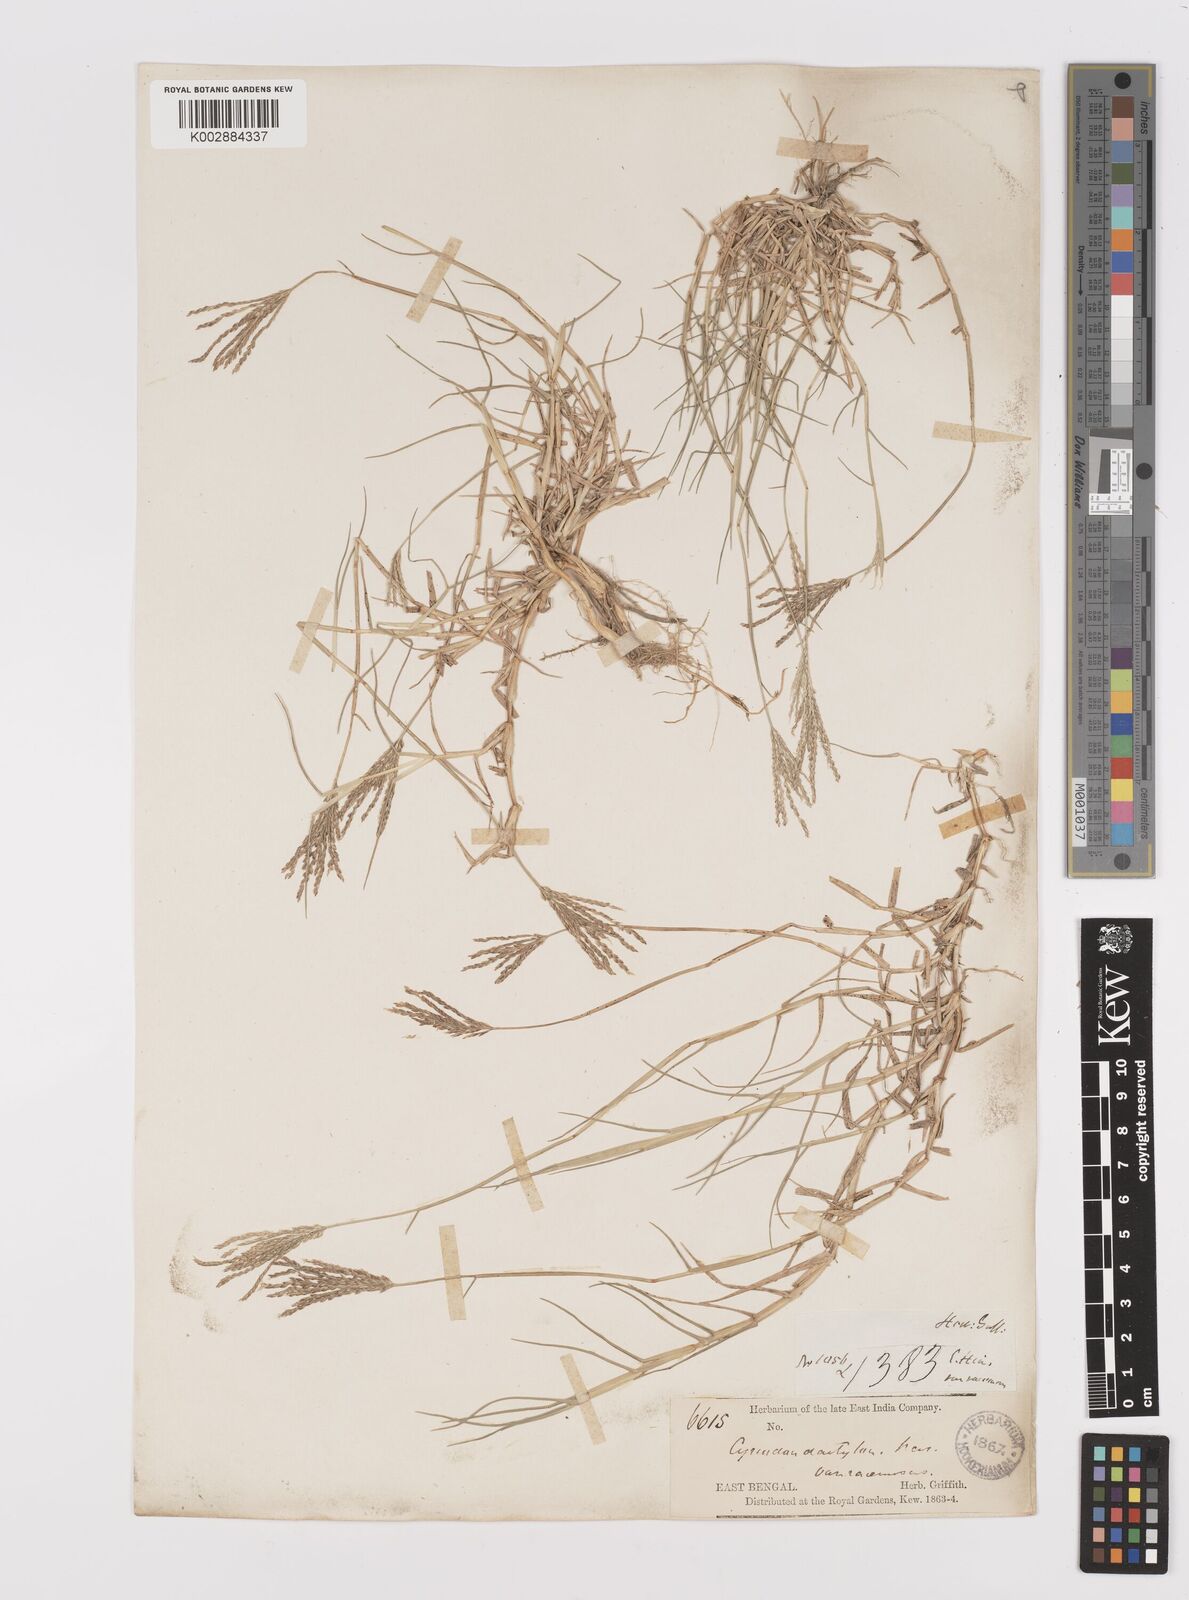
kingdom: Plantae
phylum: Tracheophyta
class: Liliopsida
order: Poales
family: Poaceae
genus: Cynodon
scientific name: Cynodon dactylon
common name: Bermuda grass
